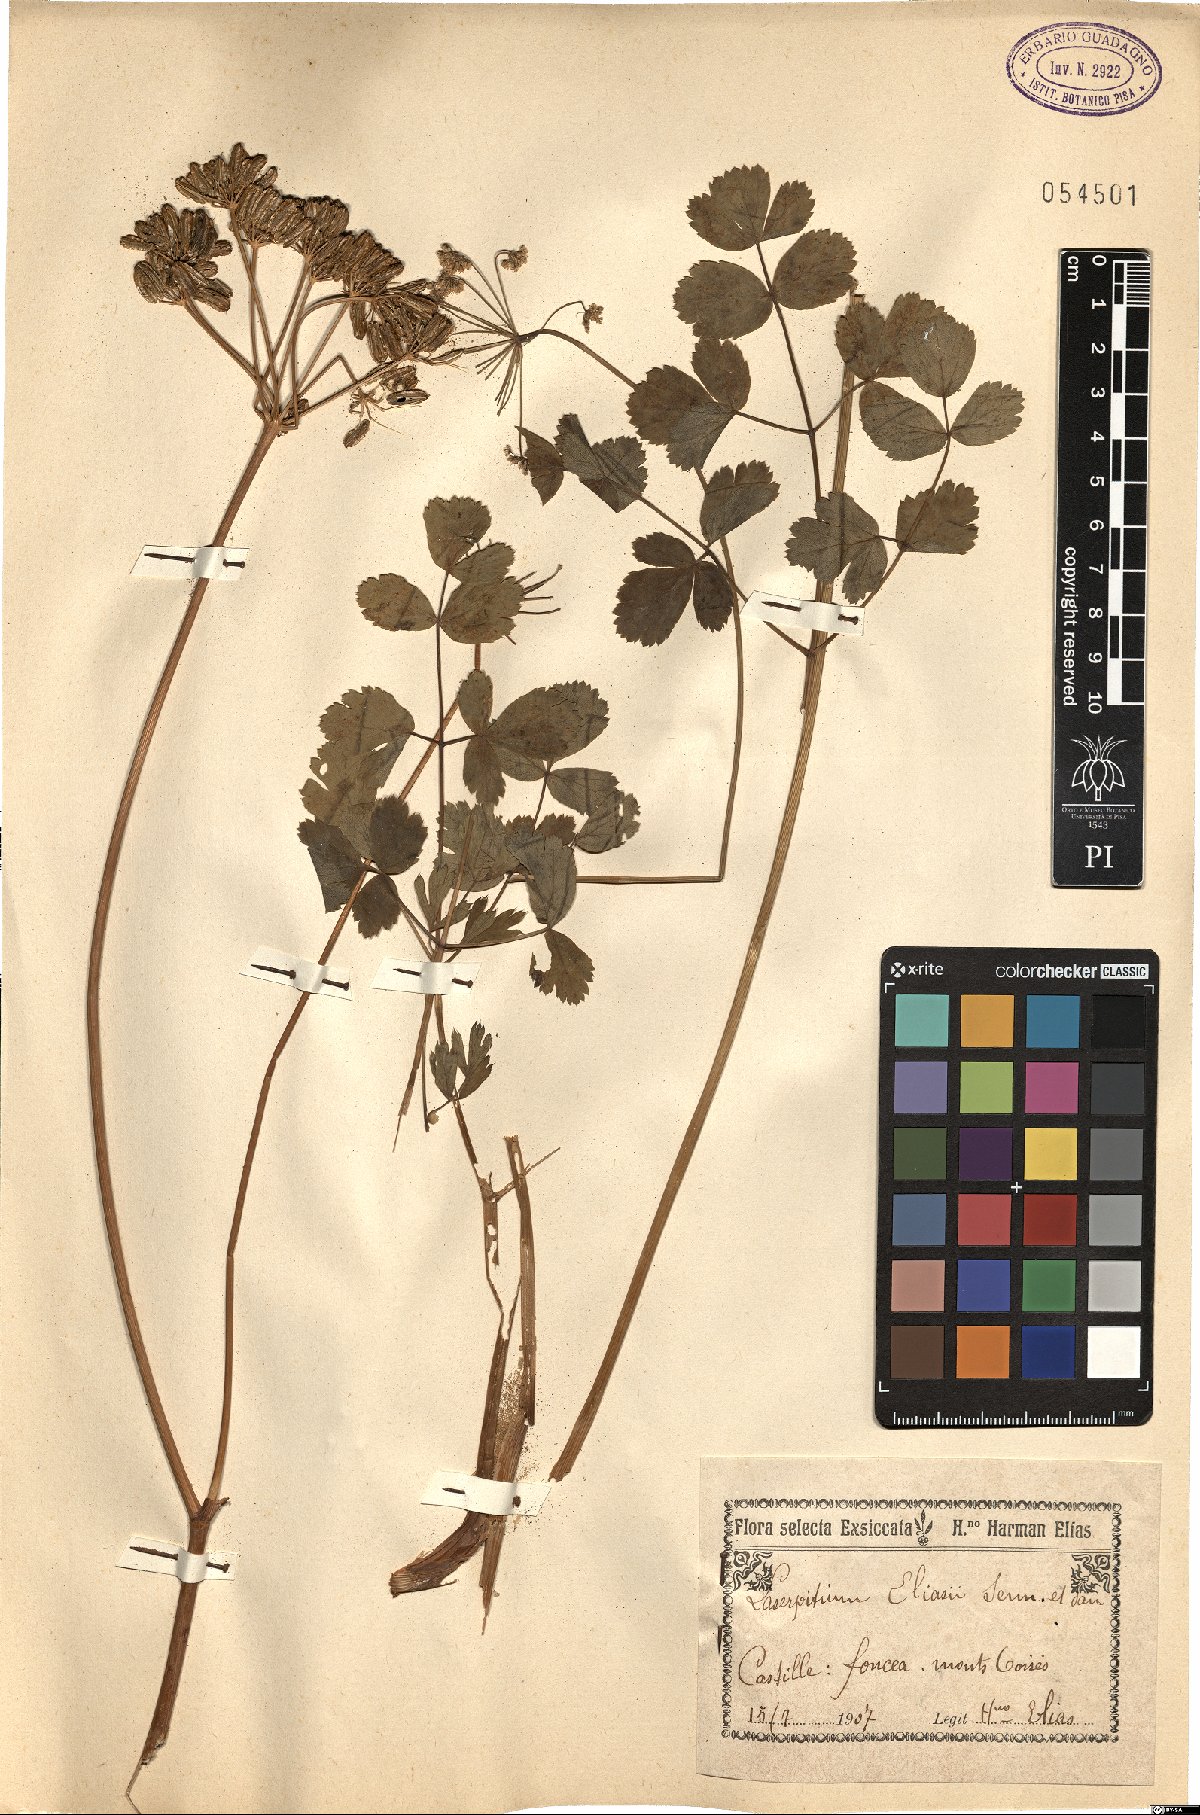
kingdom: Plantae
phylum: Tracheophyta
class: Magnoliopsida
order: Apiales
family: Apiaceae
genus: Thapsia
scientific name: Thapsia eliasii
